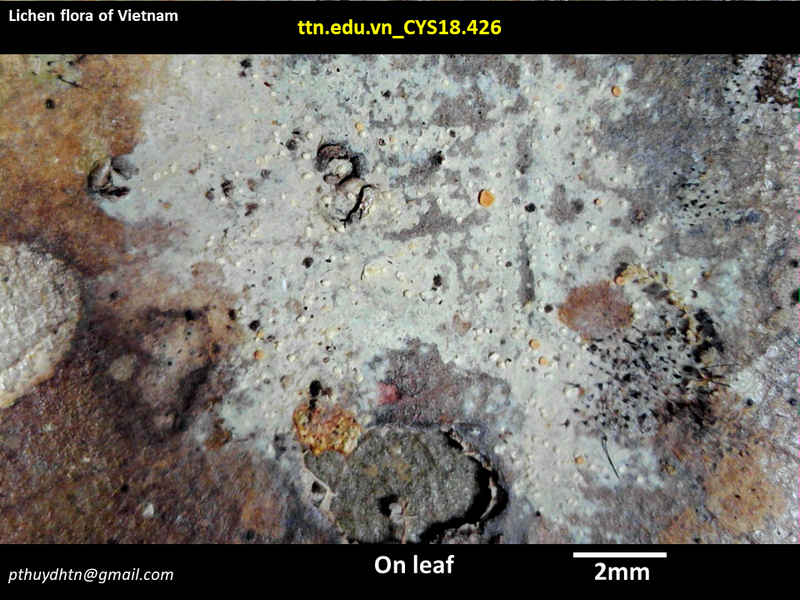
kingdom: Fungi
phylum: Ascomycota
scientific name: Ascomycota
